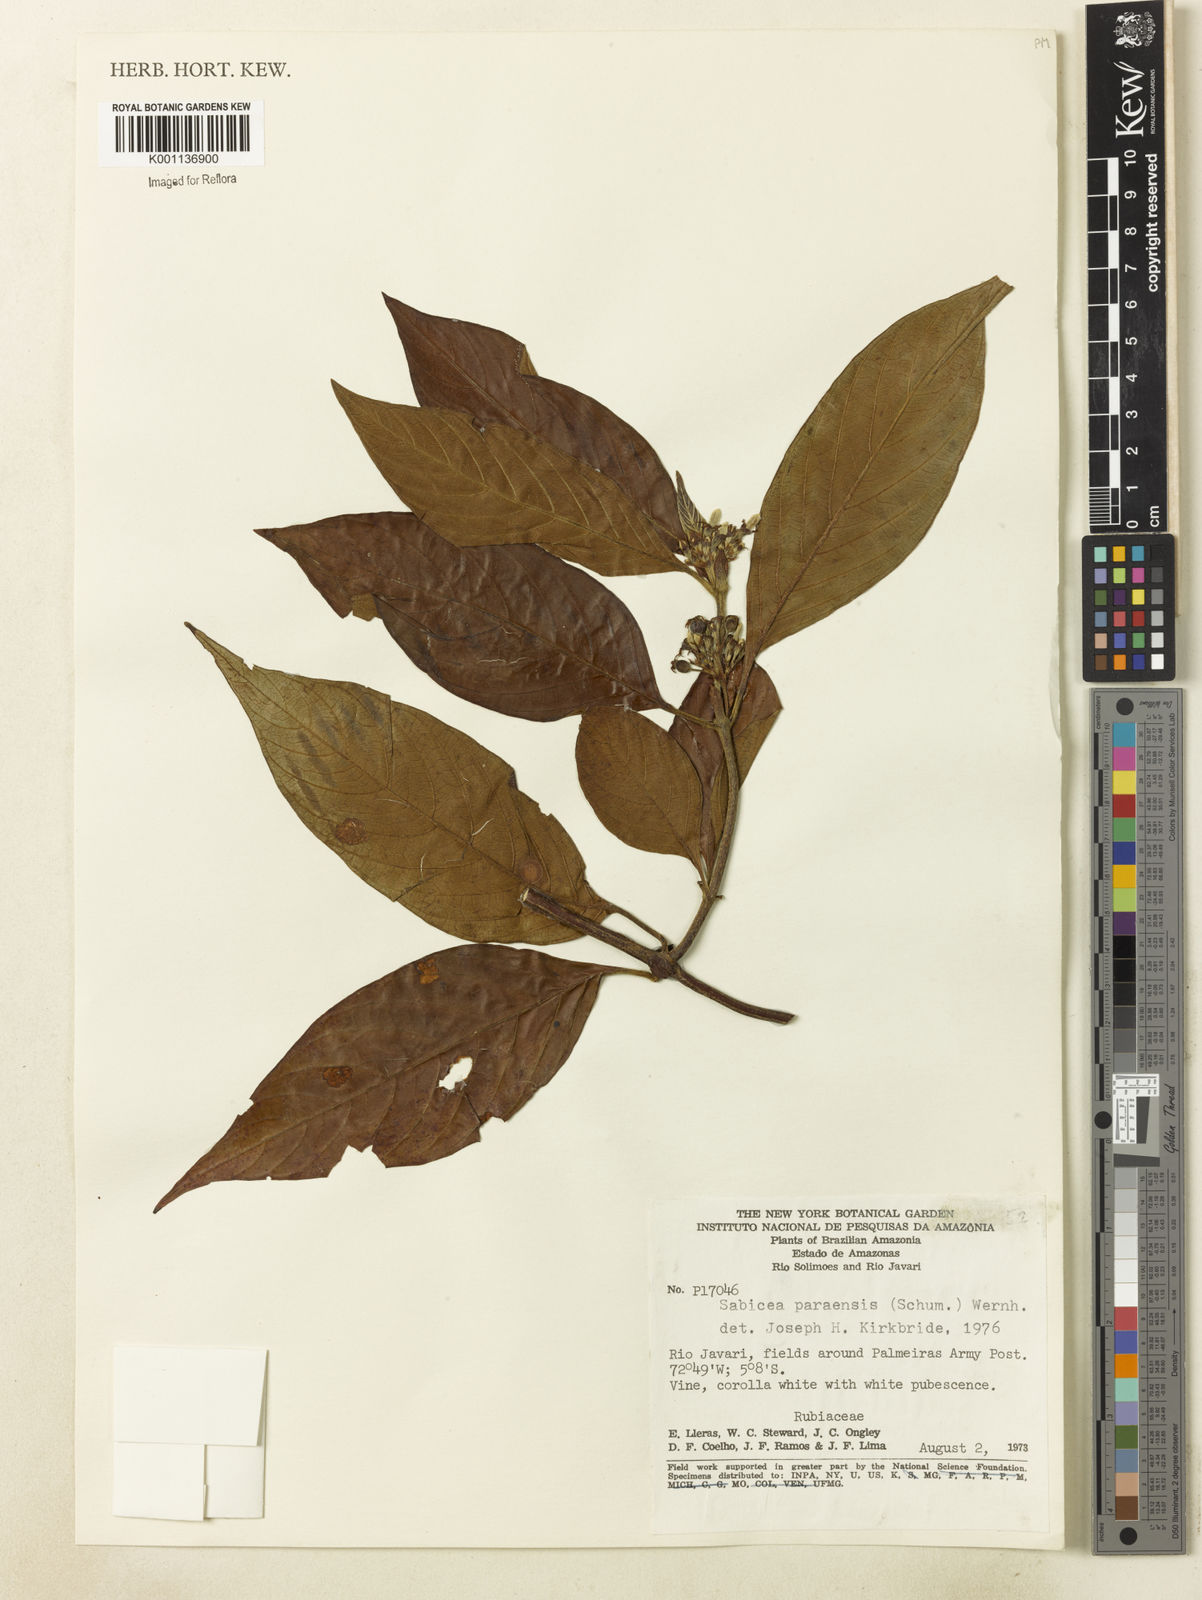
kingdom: Plantae
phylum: Tracheophyta
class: Magnoliopsida
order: Gentianales
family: Rubiaceae
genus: Sabicea
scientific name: Sabicea panamensis
